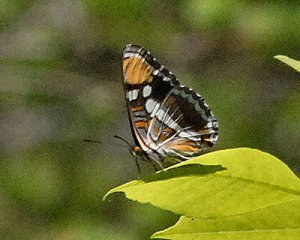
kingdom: Animalia
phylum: Arthropoda
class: Insecta
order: Lepidoptera
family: Nymphalidae
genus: Limenitis
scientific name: Limenitis bredowii
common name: California Sister
